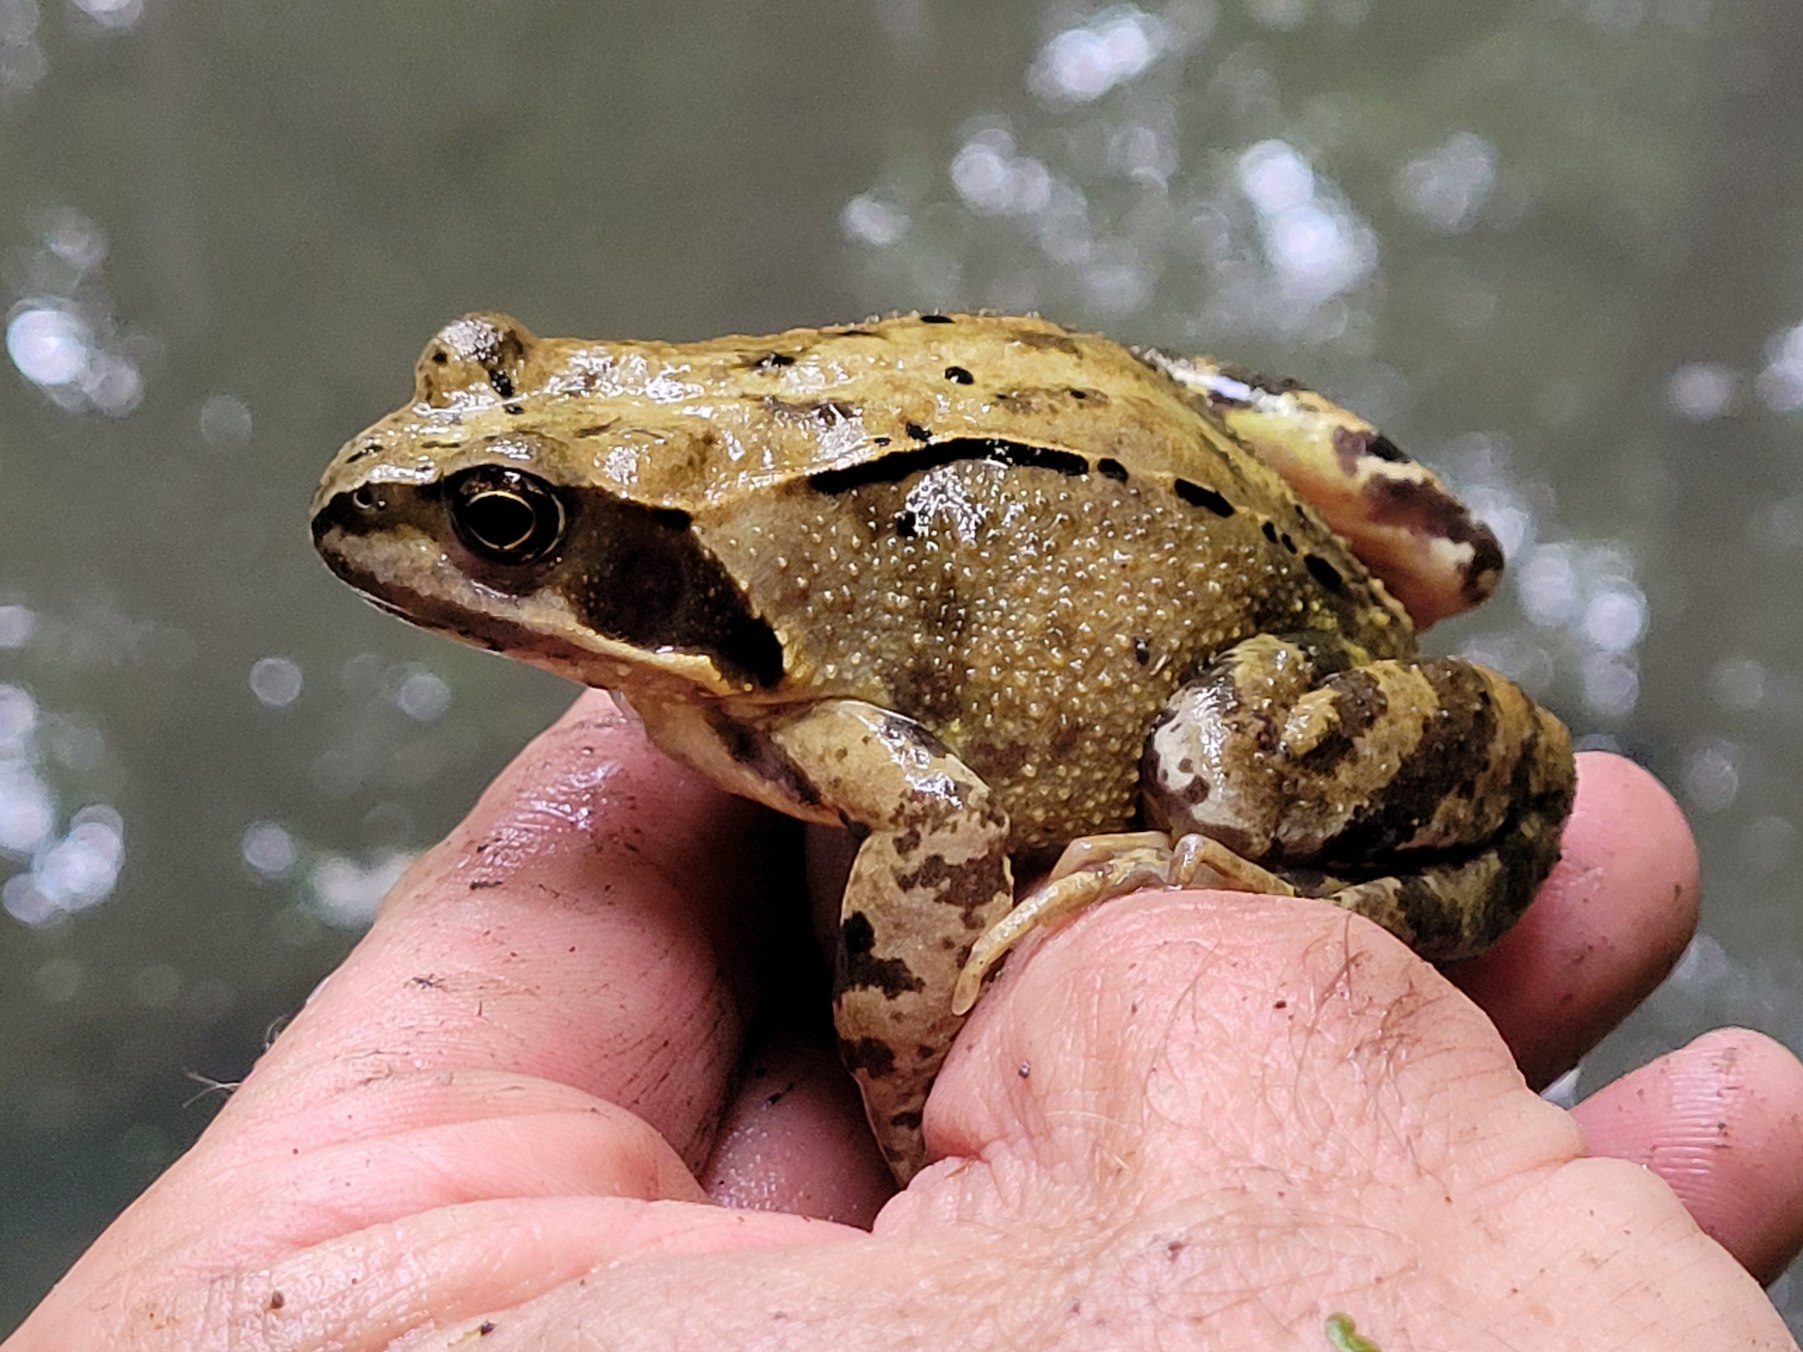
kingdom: Animalia
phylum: Chordata
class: Amphibia
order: Anura
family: Ranidae
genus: Rana
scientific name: Rana temporaria
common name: Butsnudet frø
